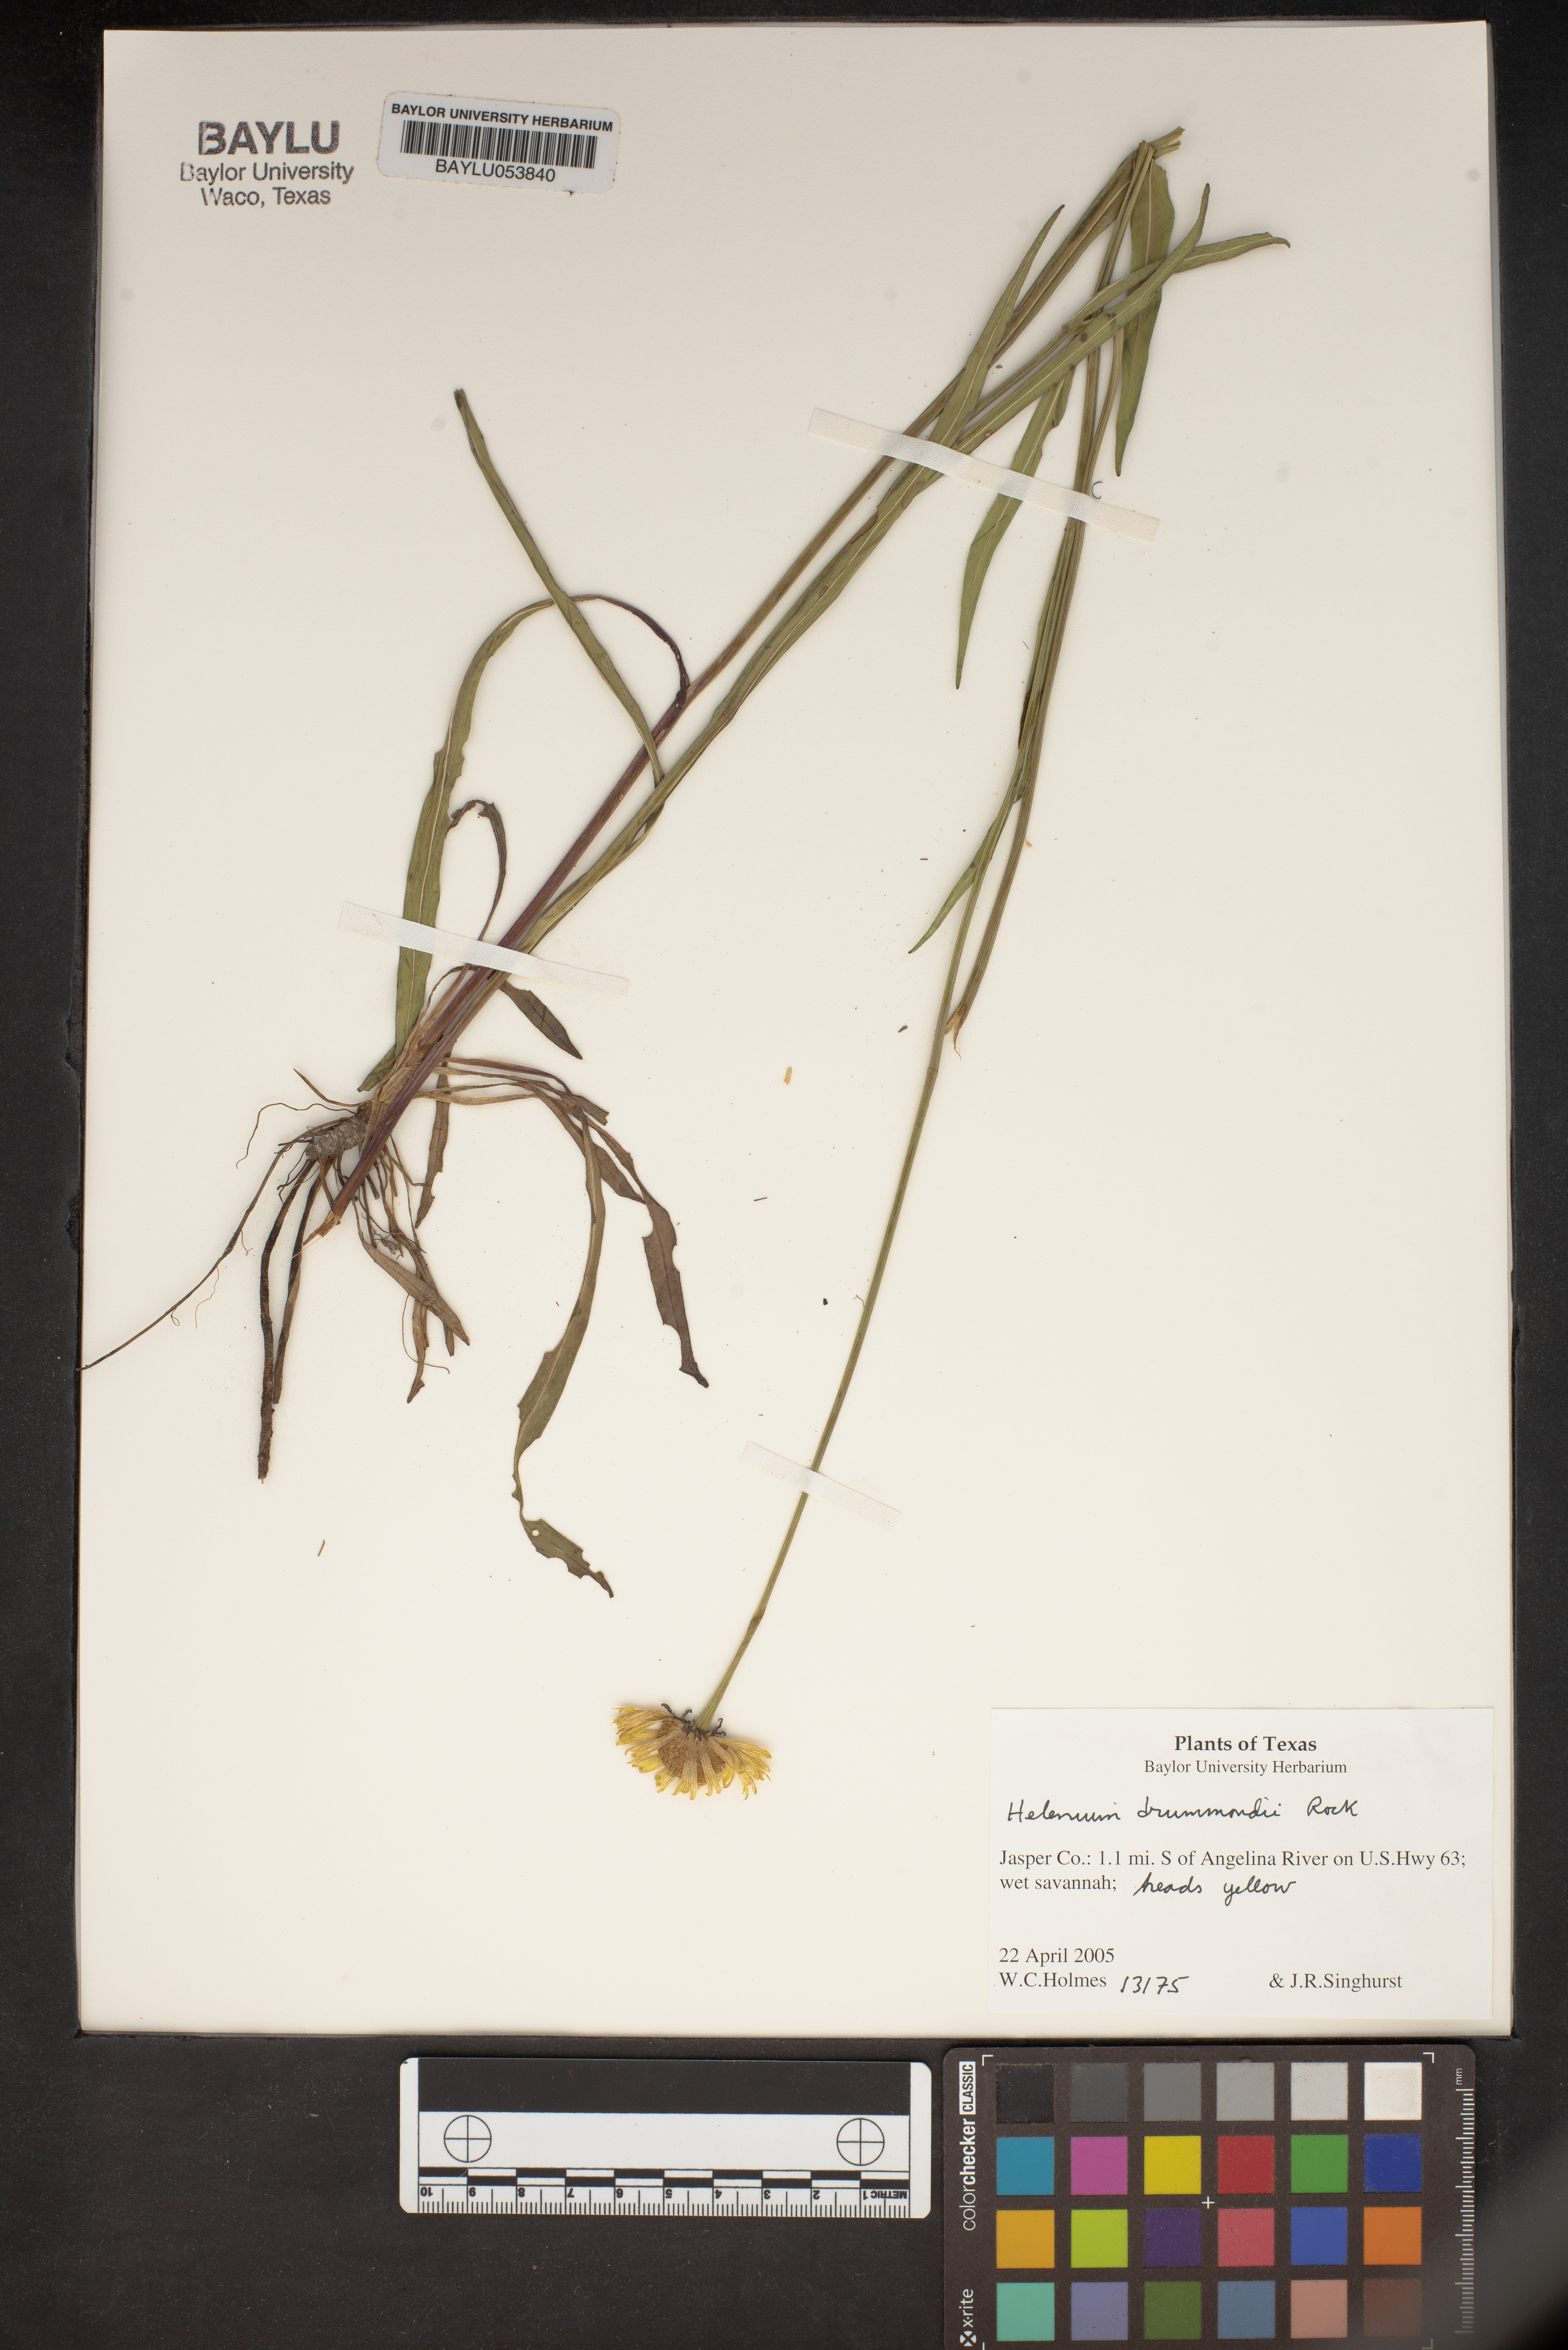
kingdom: Plantae
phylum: Tracheophyta
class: Magnoliopsida
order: Asterales
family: Asteraceae
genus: Helenium
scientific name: Helenium drummondii
